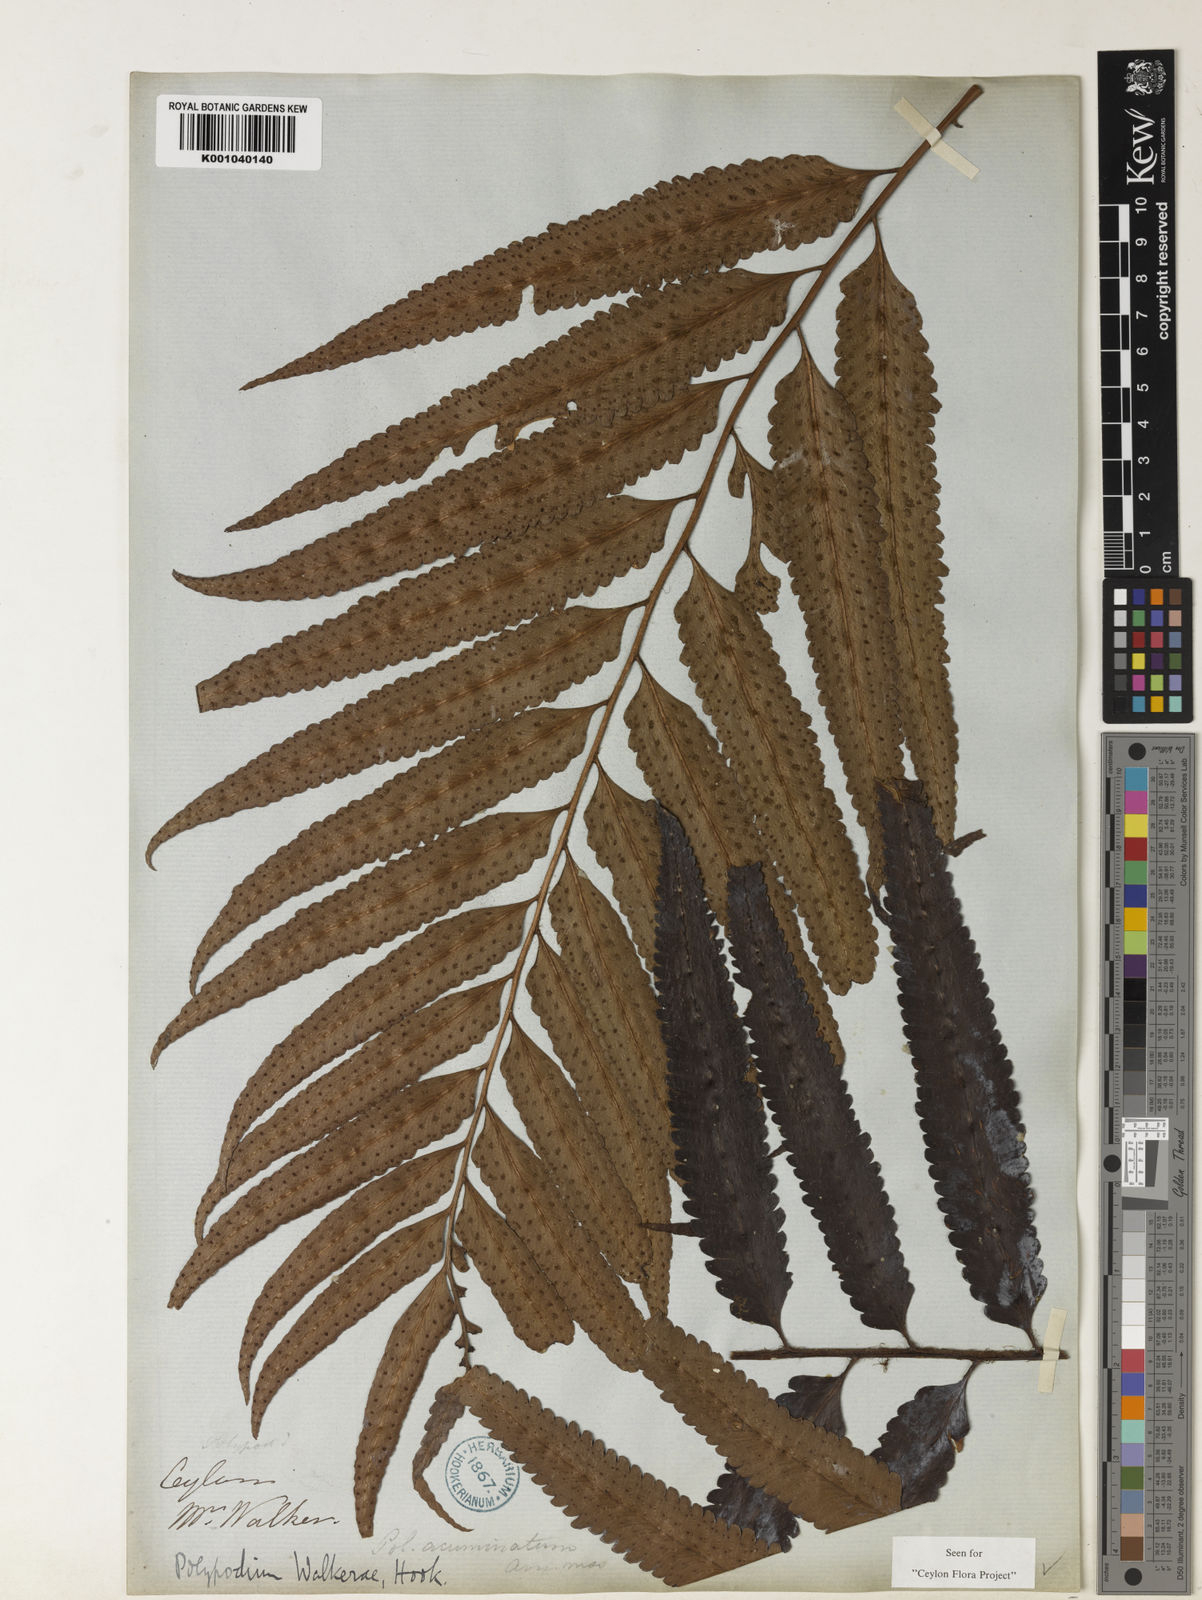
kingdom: Plantae
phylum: Tracheophyta
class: Polypodiopsida
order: Polypodiales
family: Dryopteridaceae
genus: Polystichum
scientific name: Polystichum walkerae
